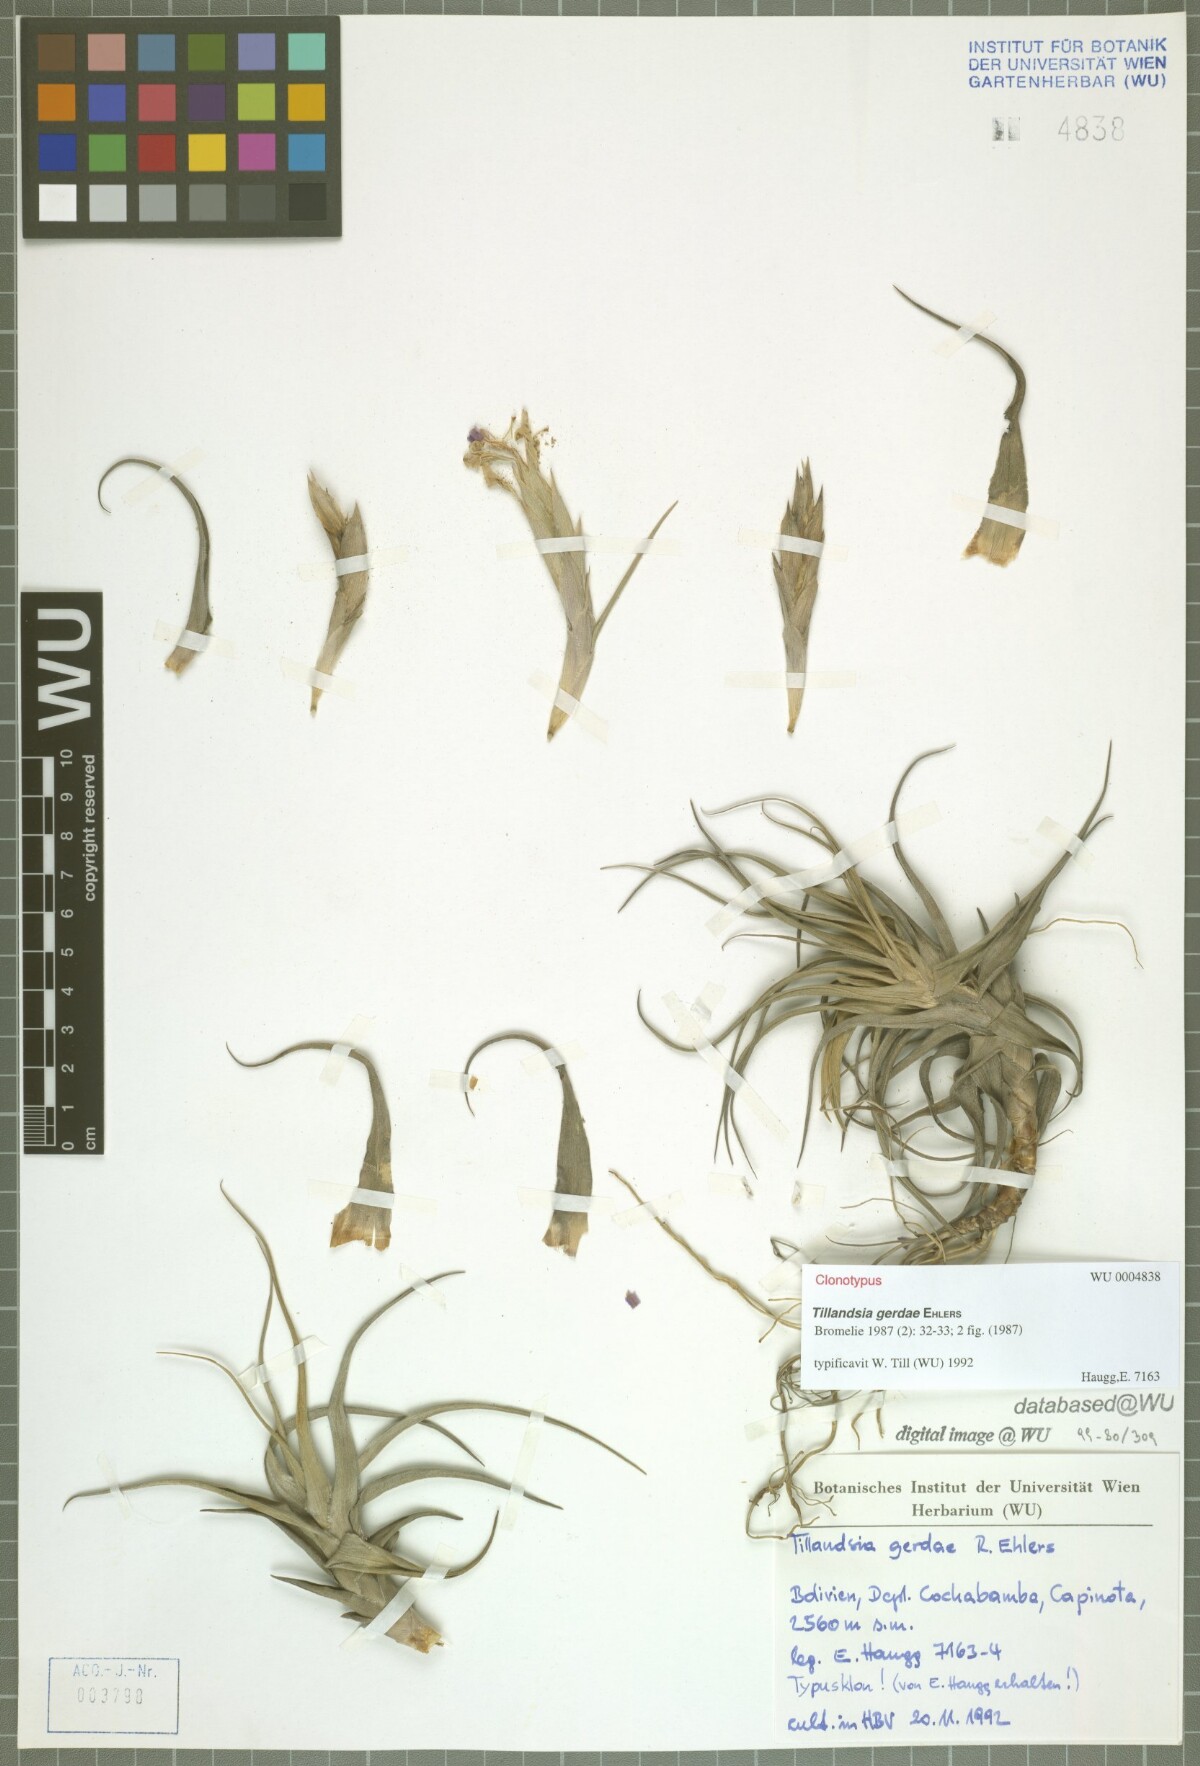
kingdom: Plantae
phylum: Tracheophyta
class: Liliopsida
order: Poales
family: Bromeliaceae
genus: Tillandsia
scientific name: Tillandsia gerdae
